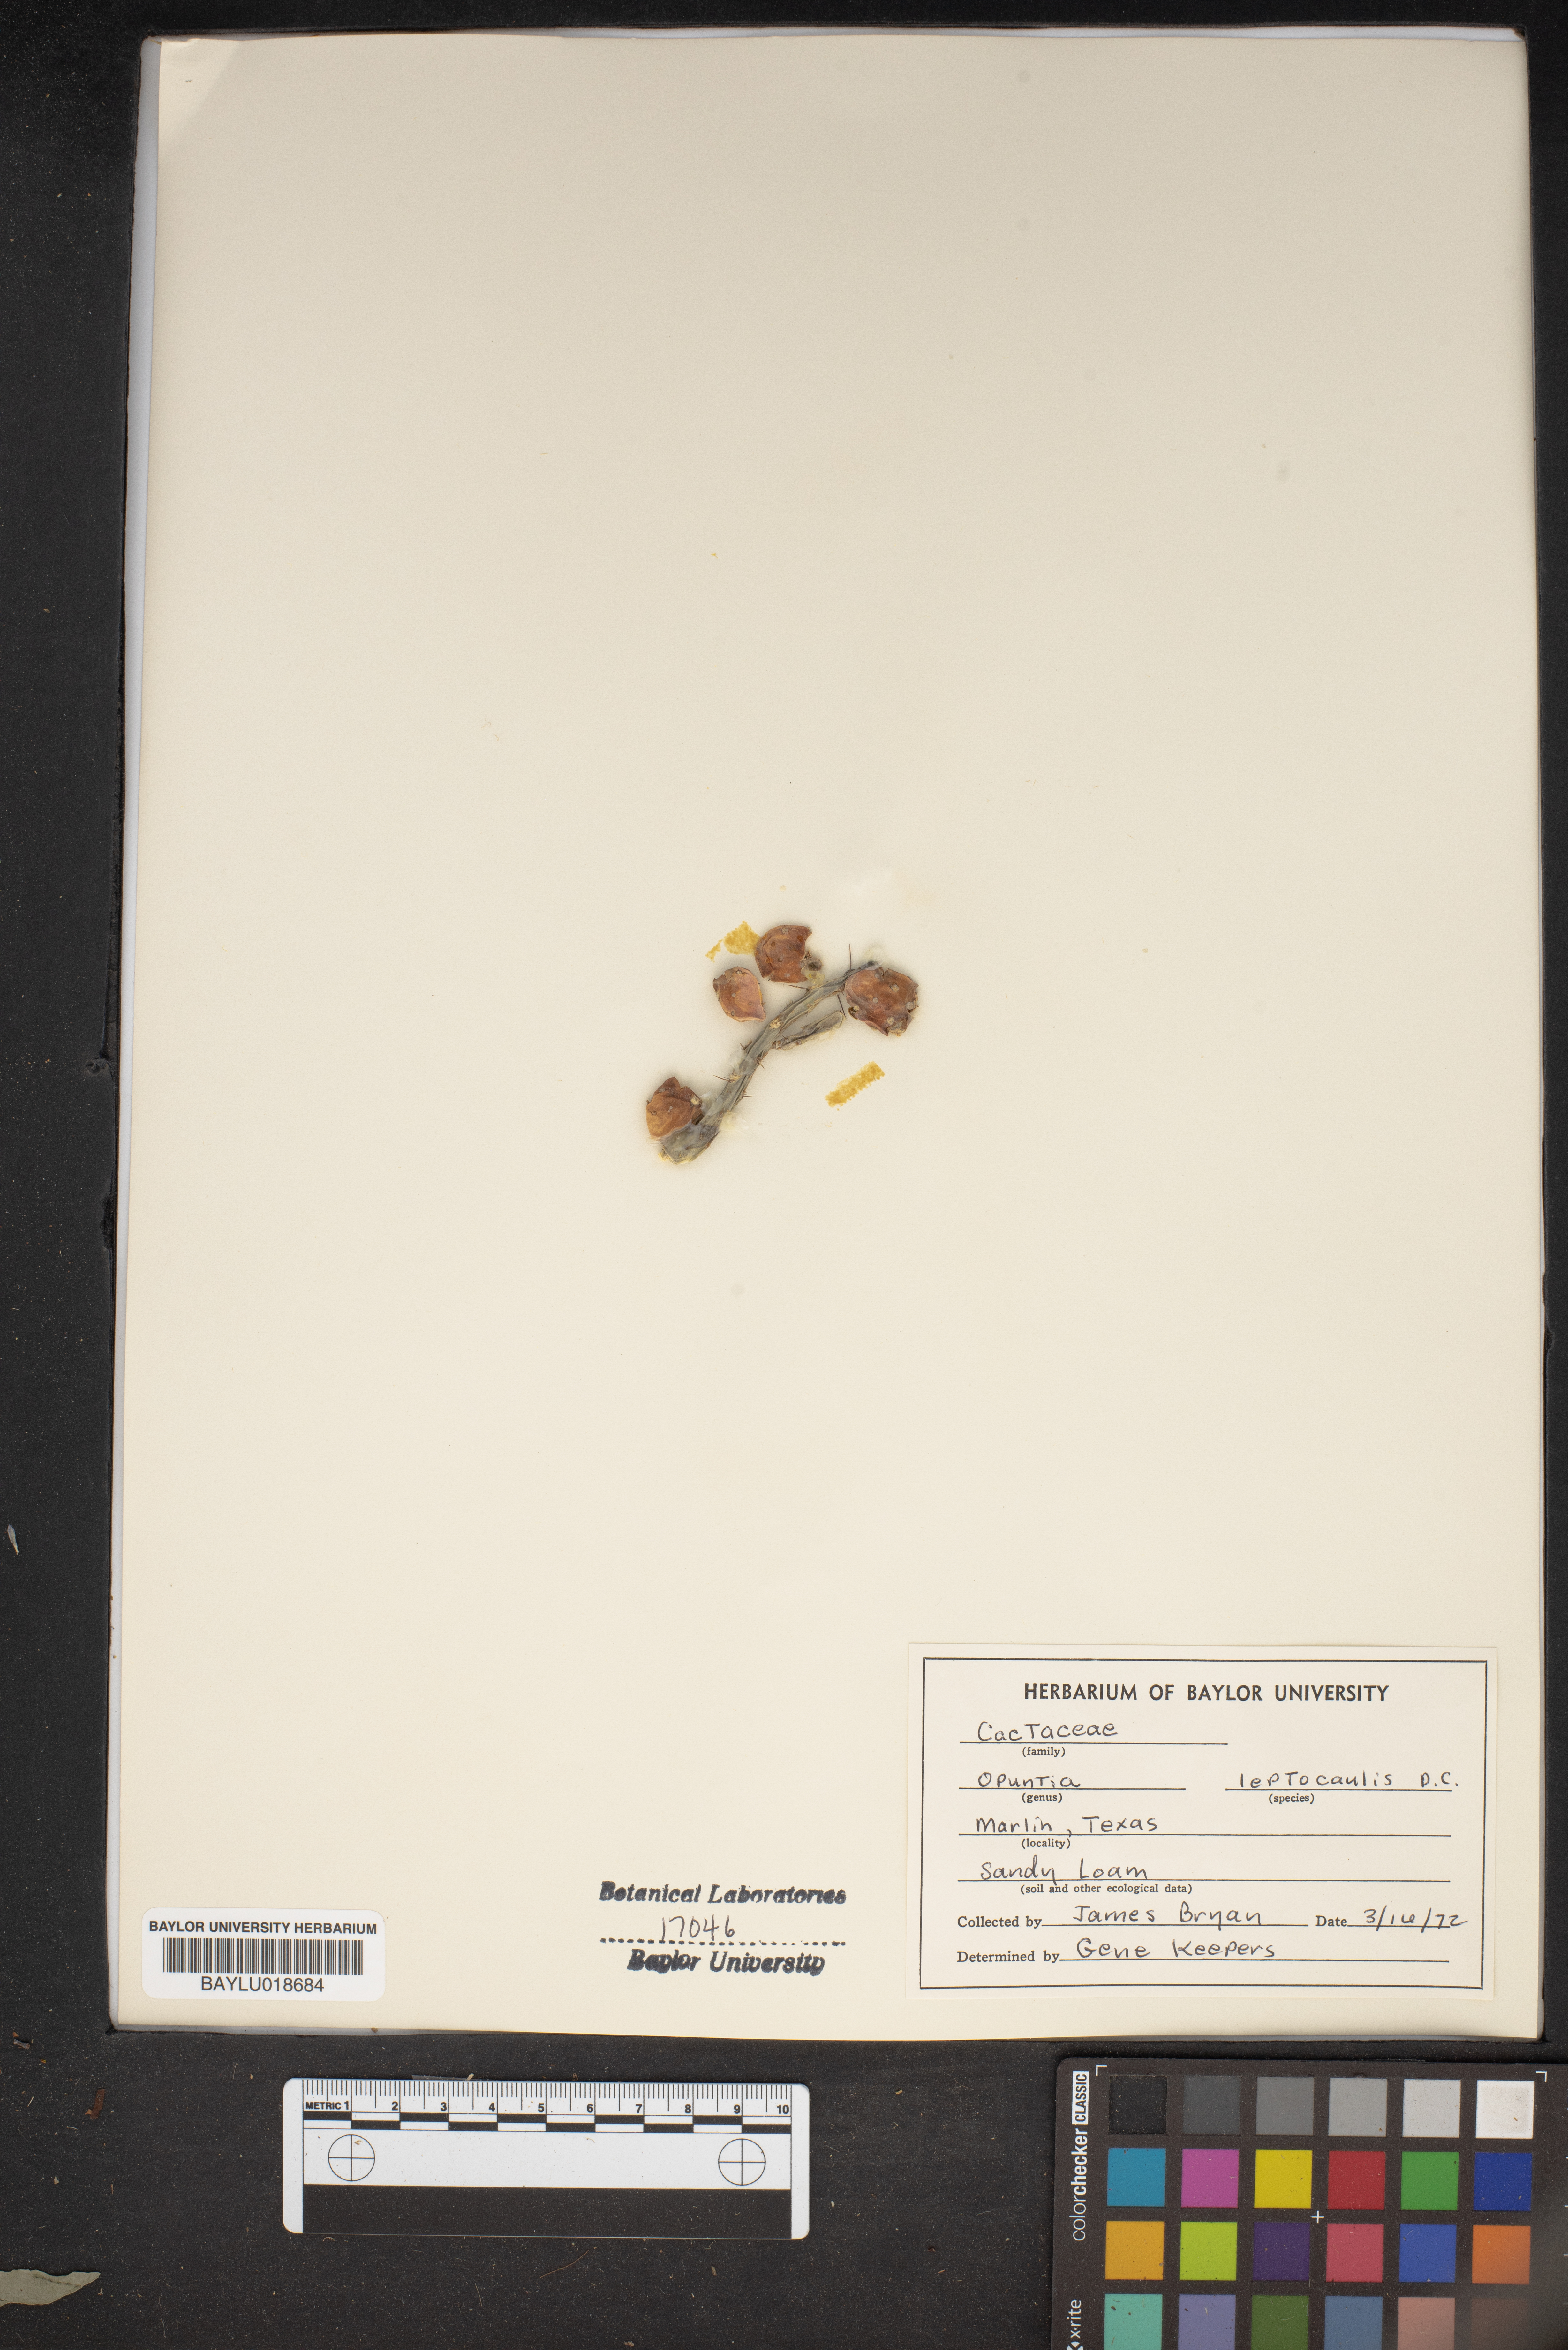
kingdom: Plantae
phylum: Tracheophyta
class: Magnoliopsida
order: Caryophyllales
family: Cactaceae
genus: Cylindropuntia
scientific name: Cylindropuntia leptocaulis
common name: Christmas cactus
